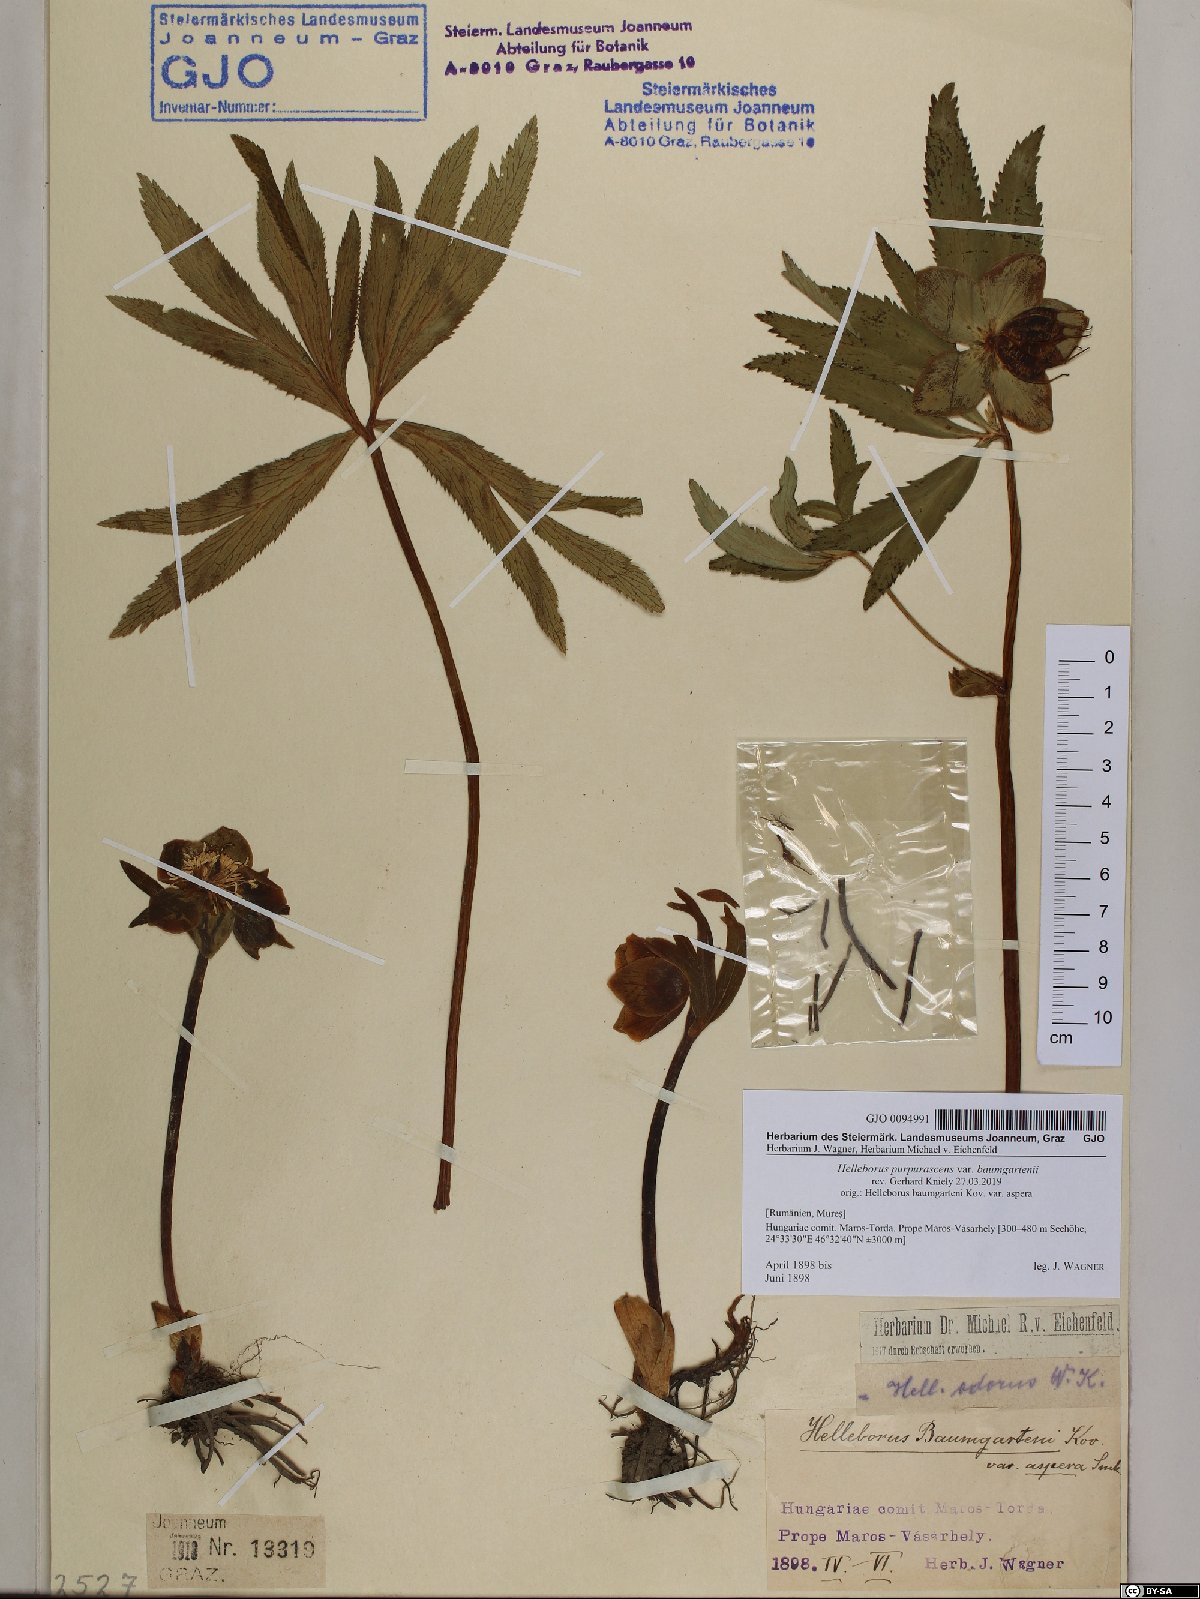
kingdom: Plantae
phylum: Tracheophyta
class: Magnoliopsida
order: Ranunculales
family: Ranunculaceae
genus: Helleborus
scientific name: Helleborus purpurascens
